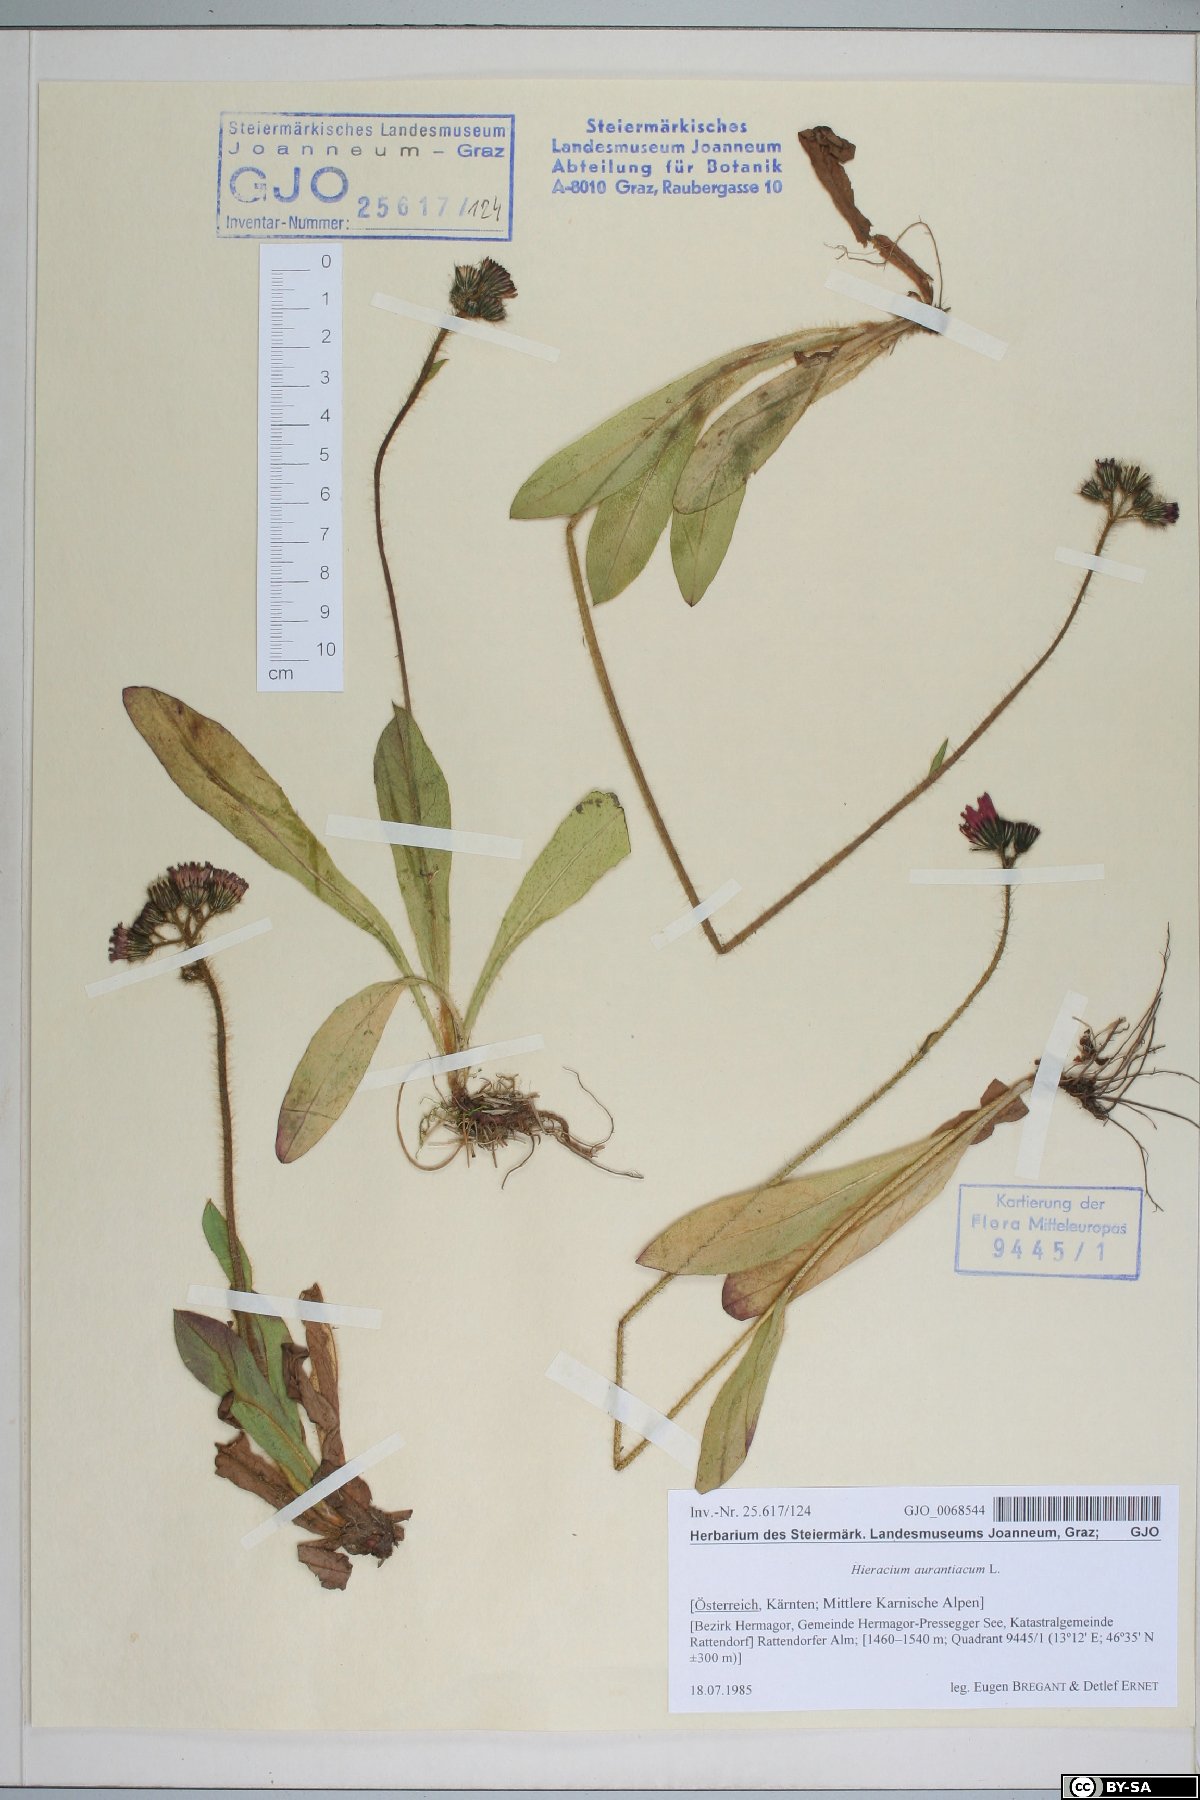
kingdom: Plantae
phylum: Tracheophyta
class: Magnoliopsida
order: Asterales
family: Asteraceae
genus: Pilosella
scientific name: Pilosella aurantiaca
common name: Fox-and-cubs
